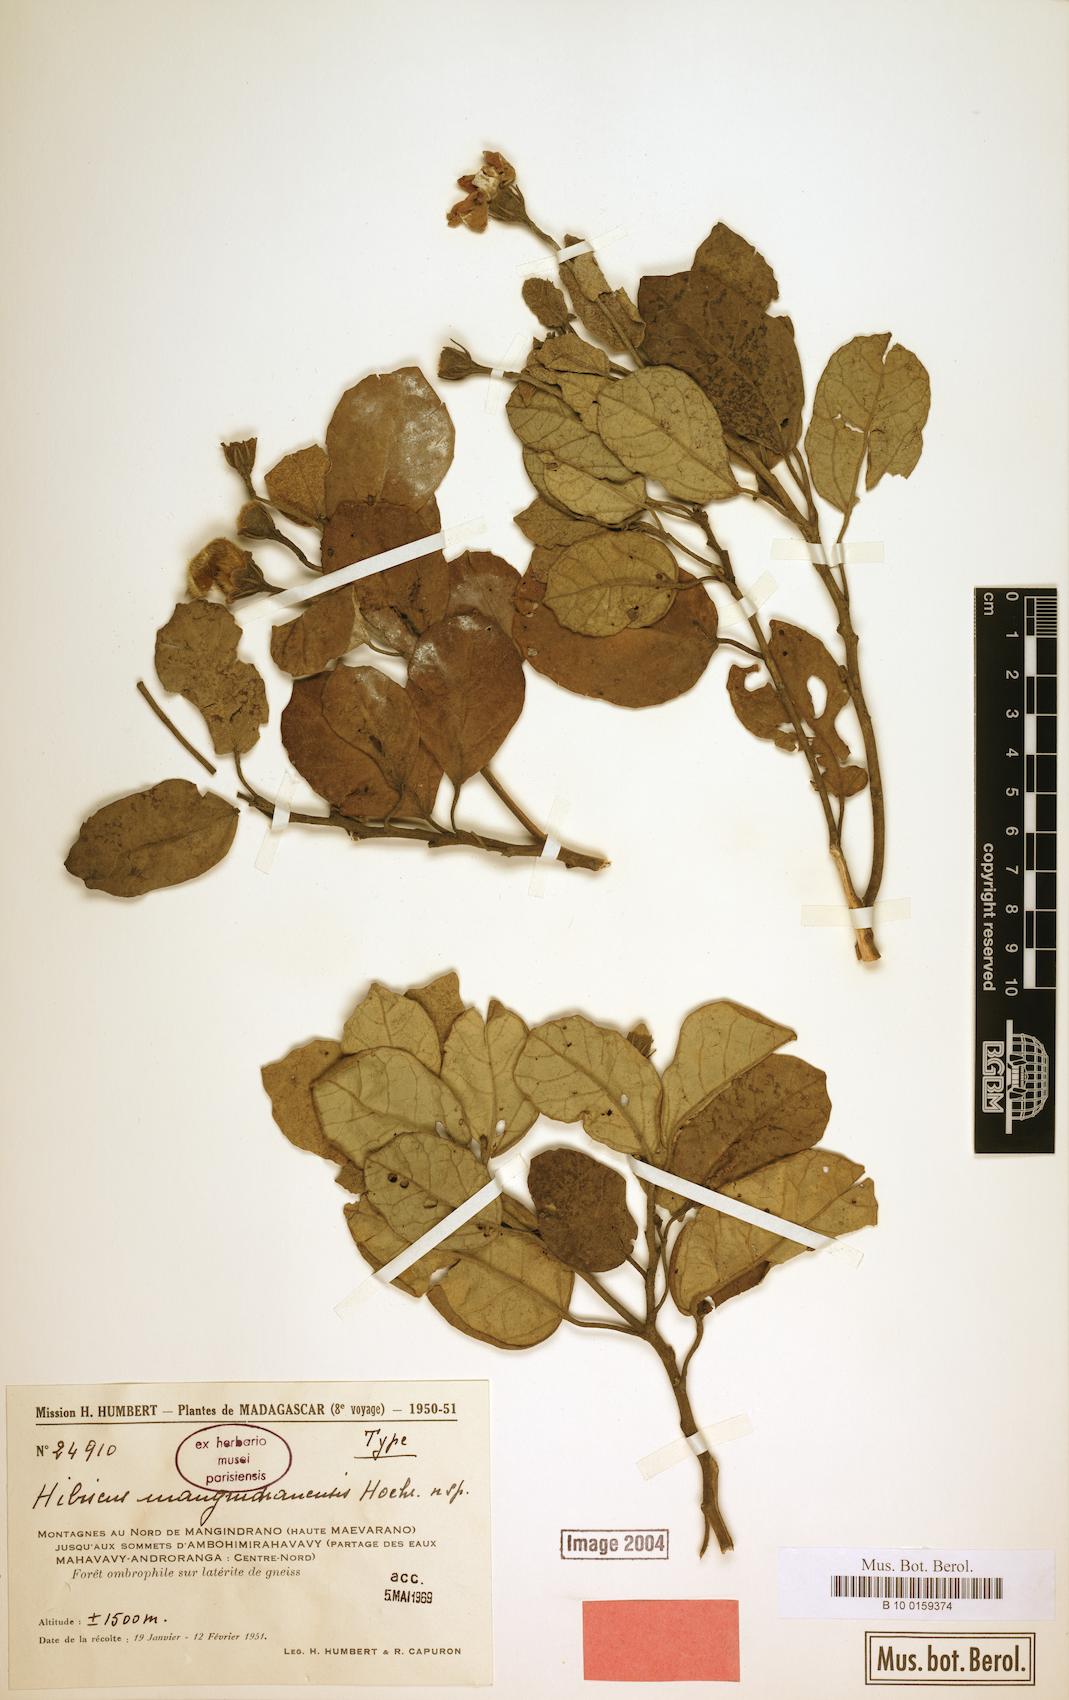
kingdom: Plantae
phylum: Tracheophyta
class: Magnoliopsida
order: Malvales
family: Malvaceae
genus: Hibiscus
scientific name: Hibiscus mangindranensis
